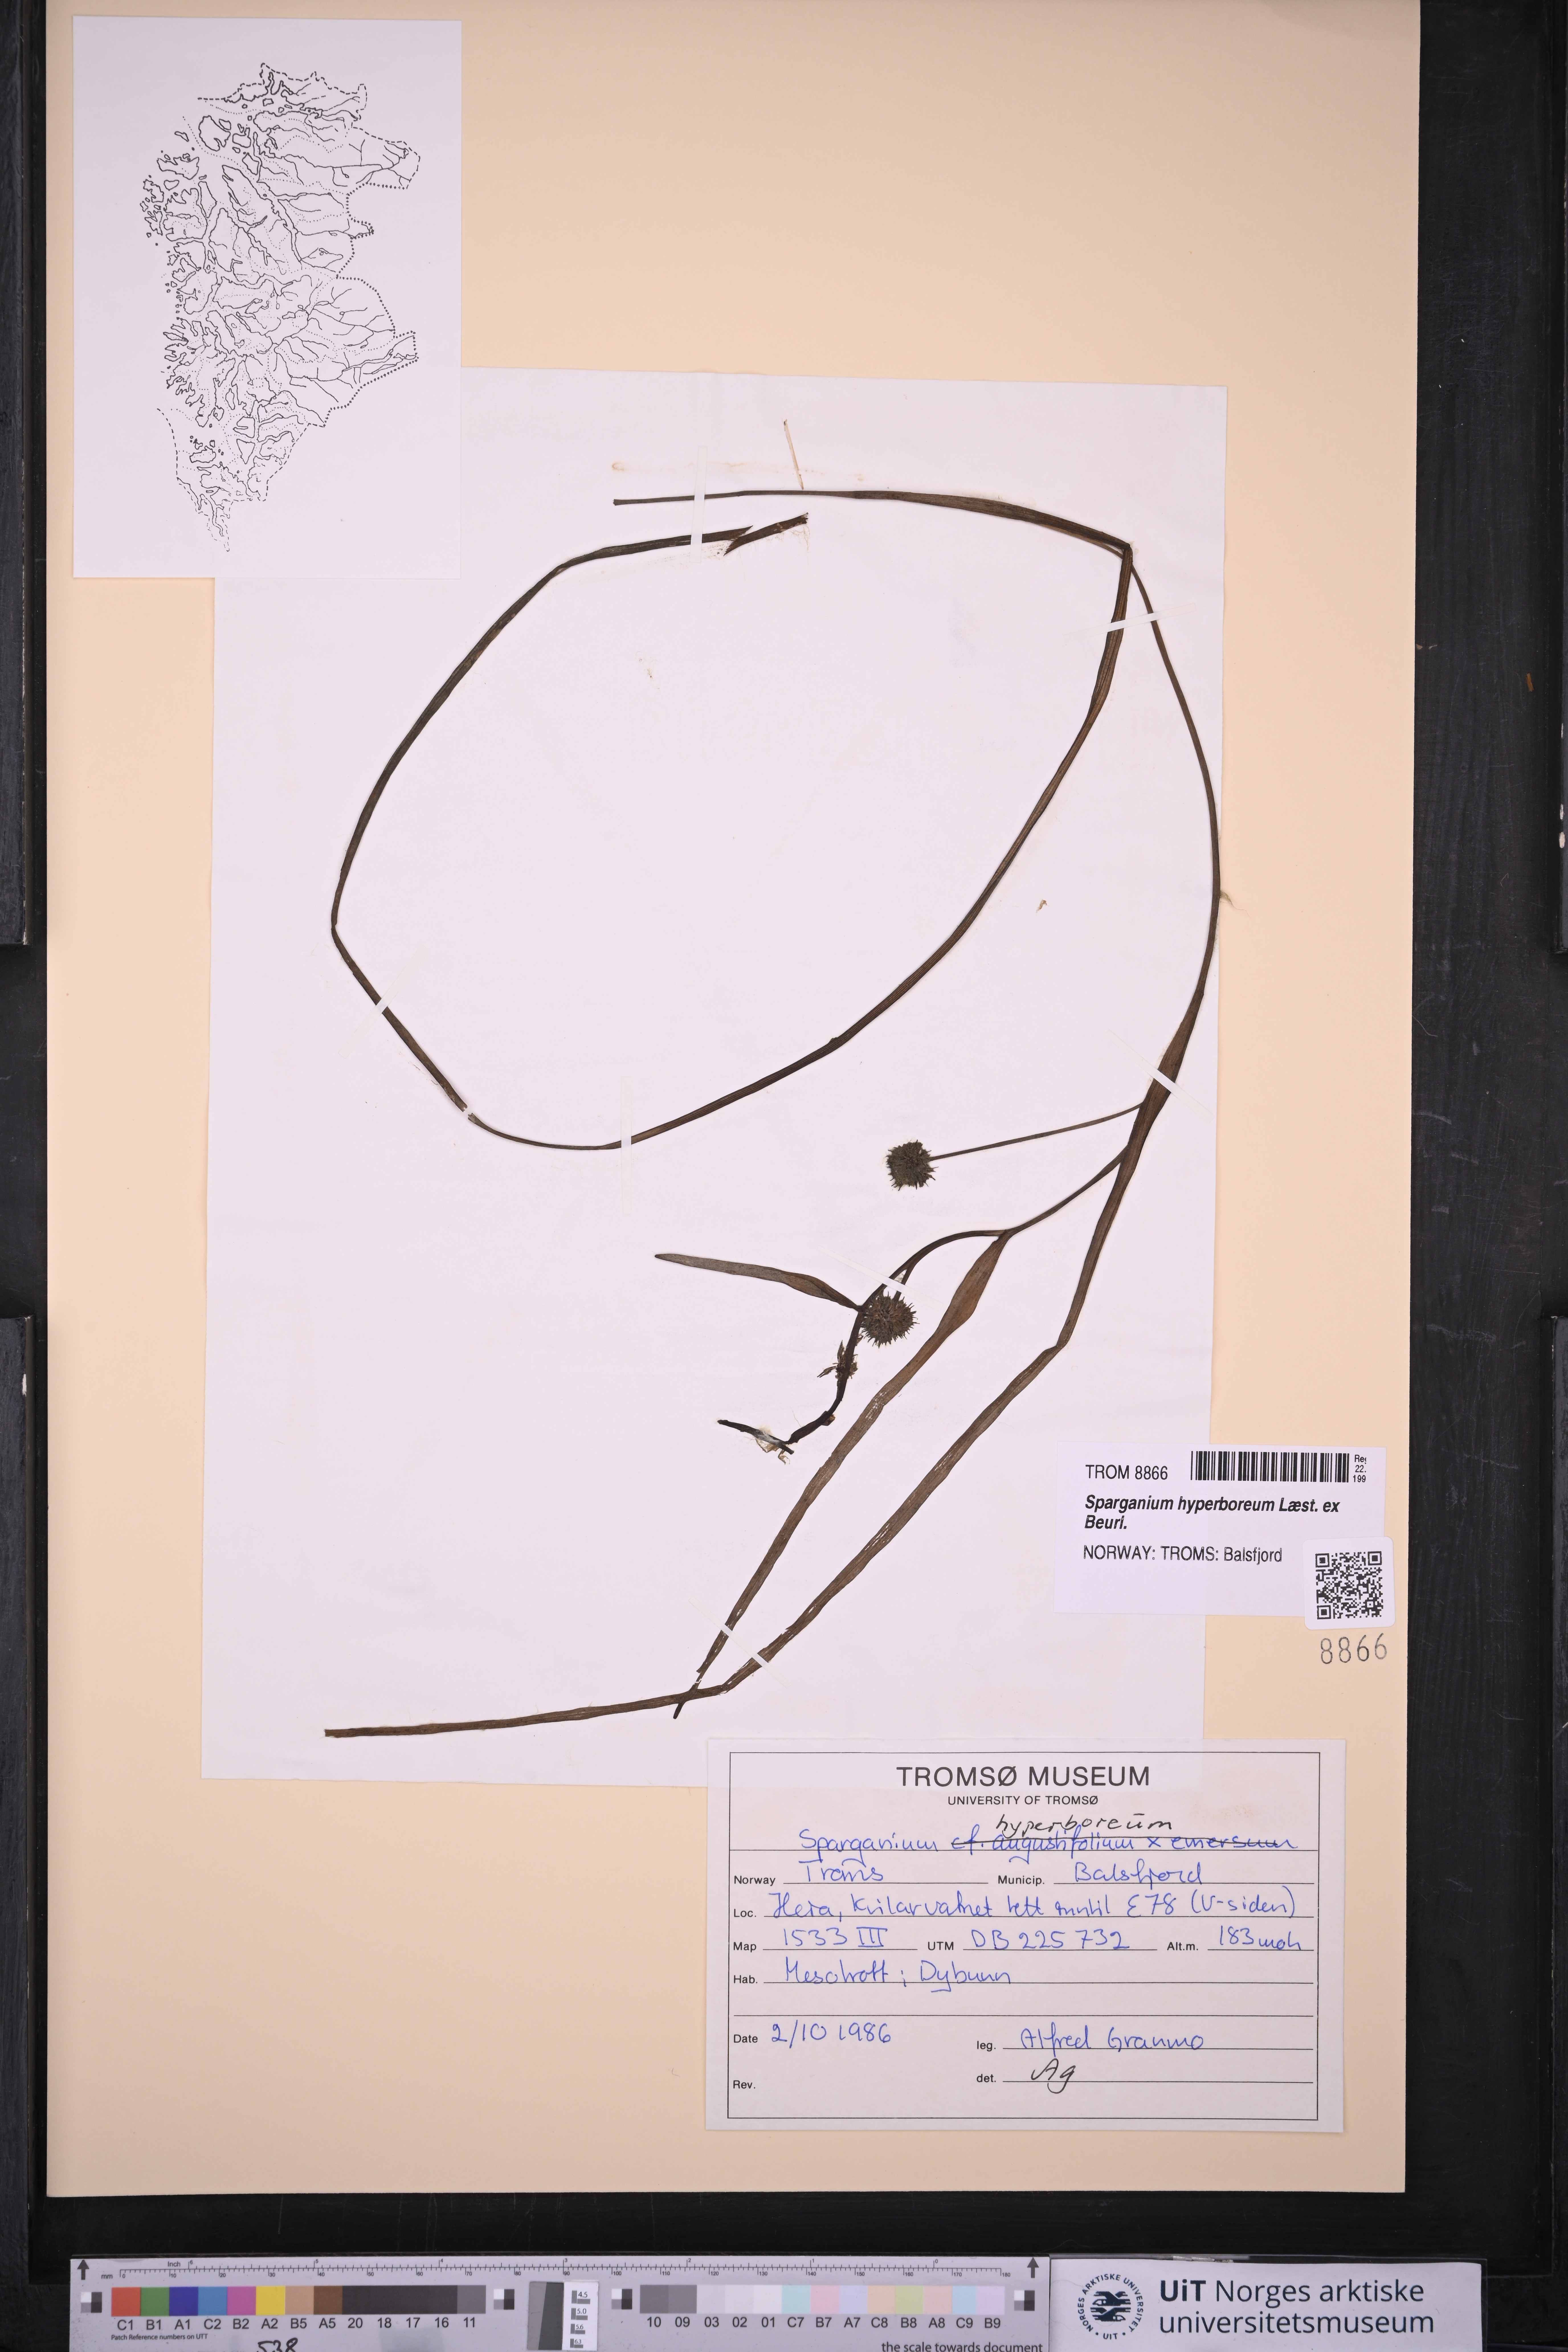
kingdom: Plantae
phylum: Tracheophyta
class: Liliopsida
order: Poales
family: Typhaceae
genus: Sparganium
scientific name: Sparganium hyperboreum
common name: Arctic burreed
